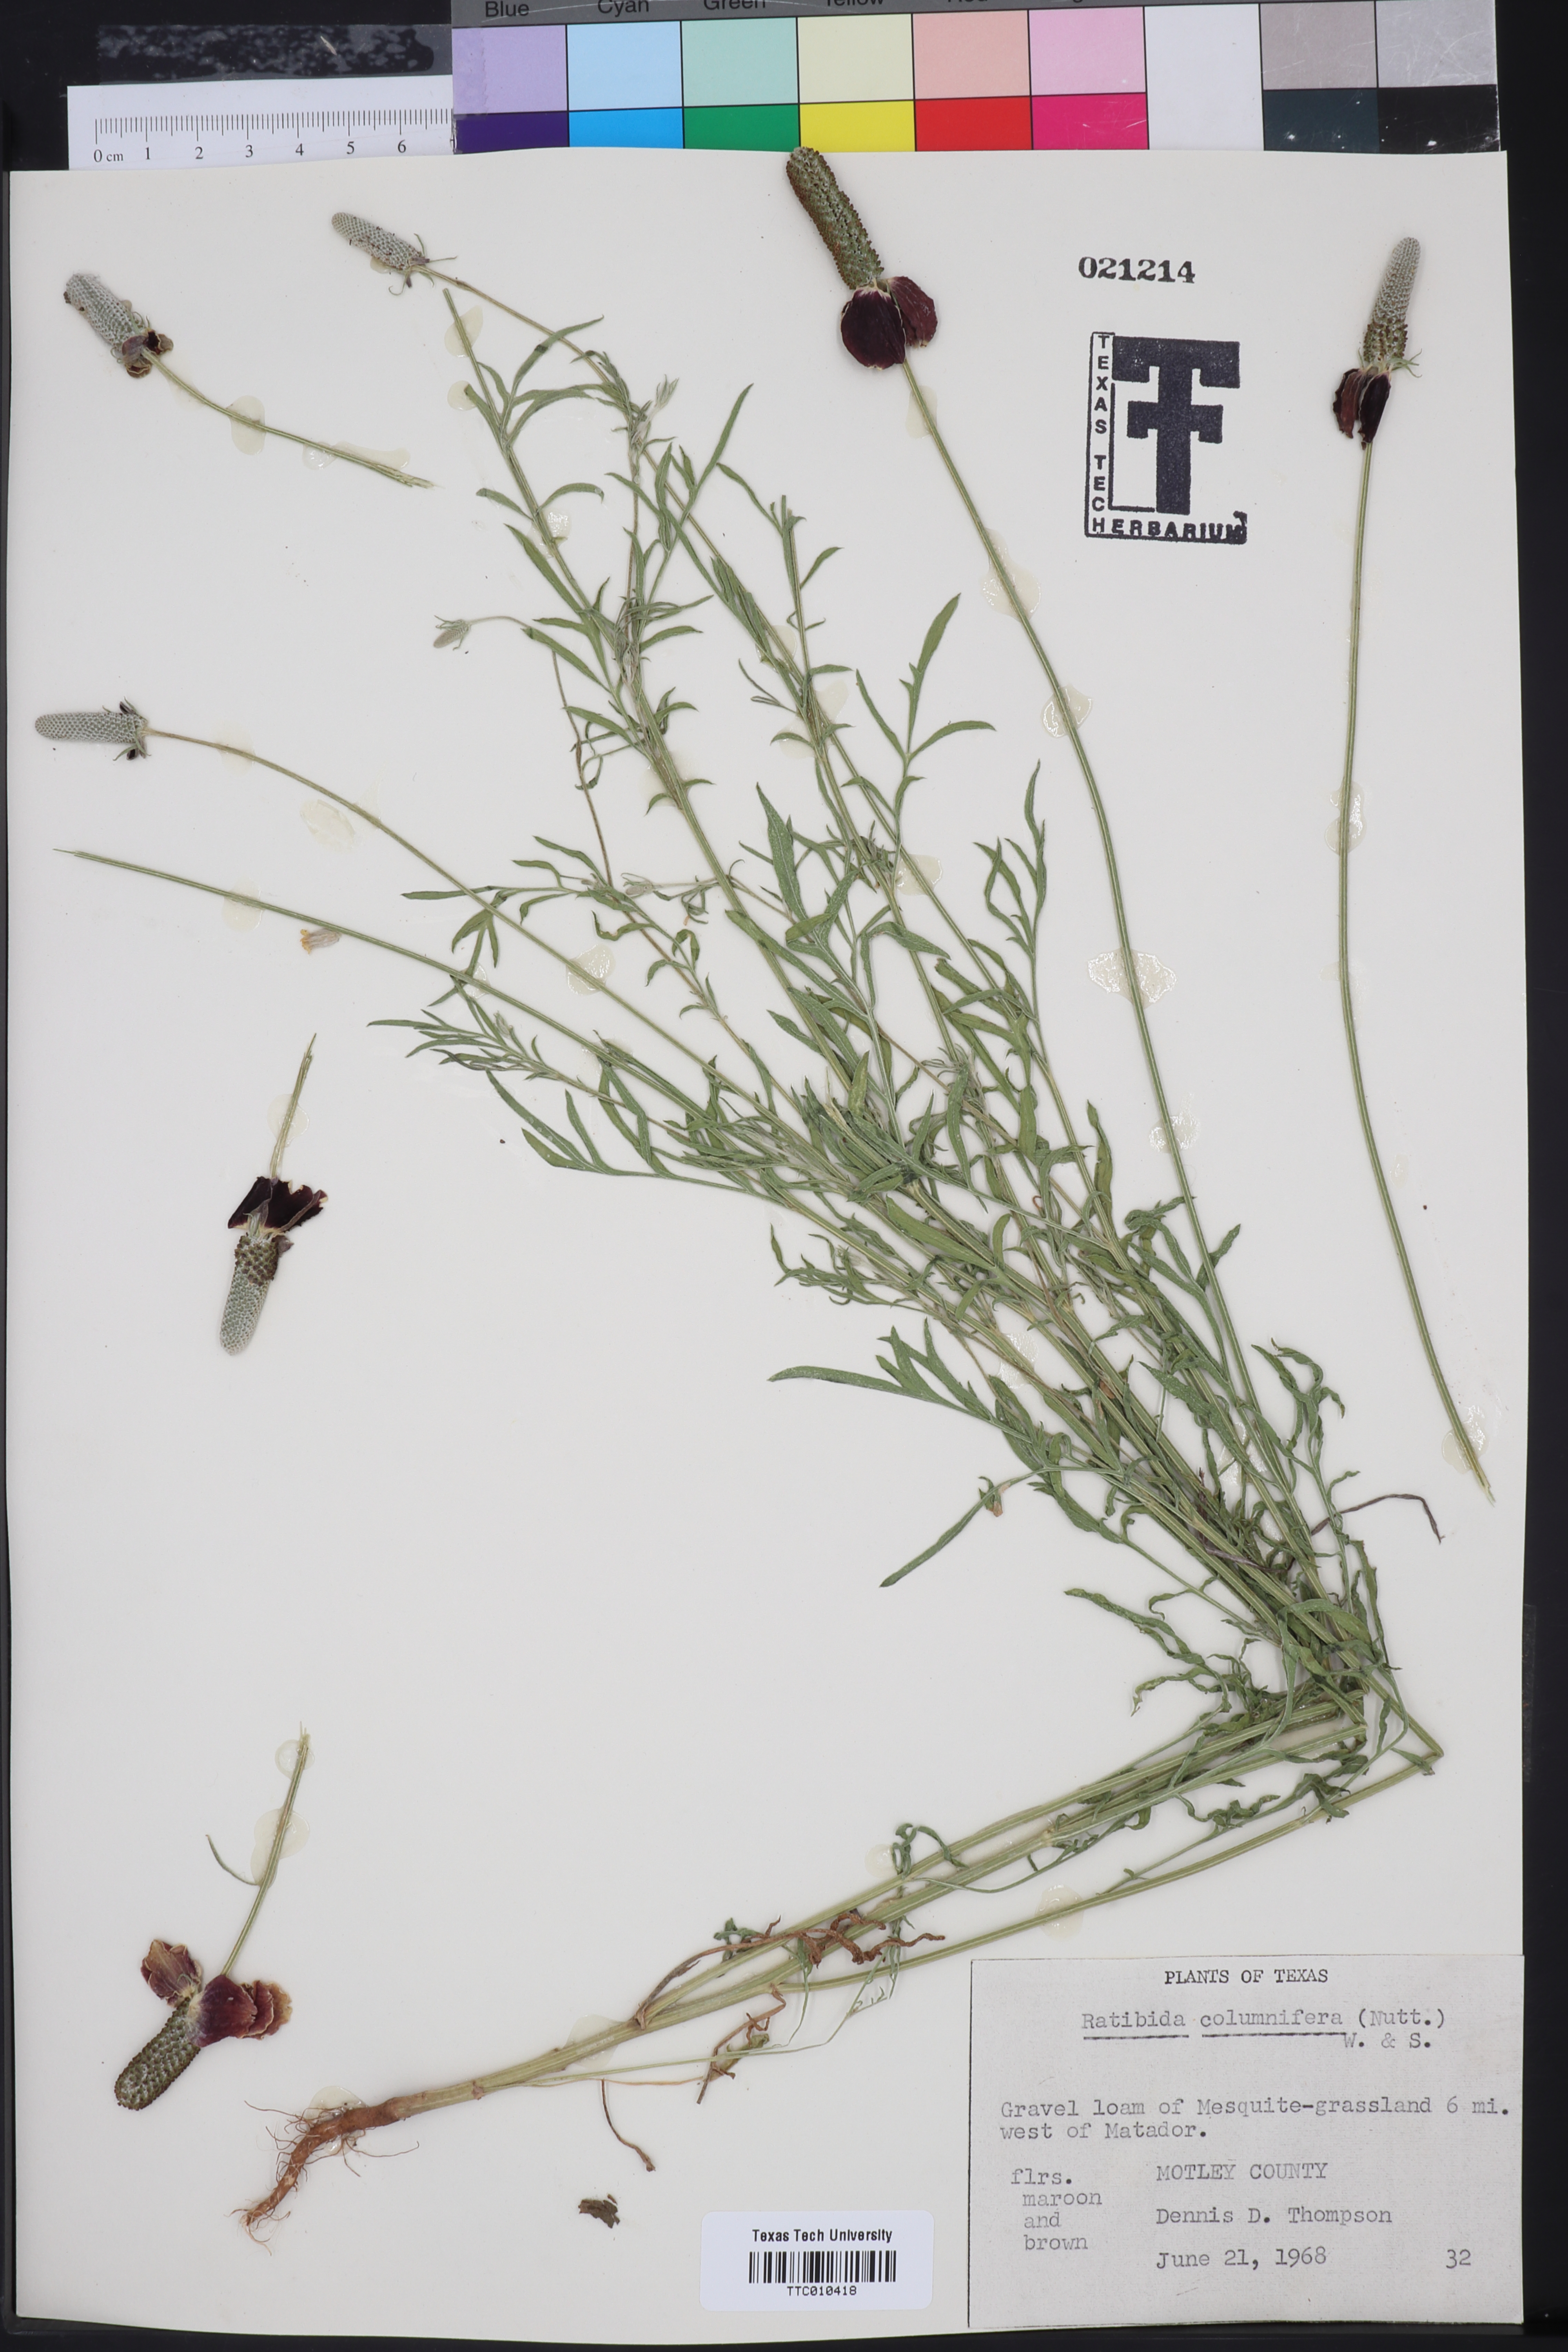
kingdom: Plantae
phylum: Tracheophyta
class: Magnoliopsida
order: Asterales
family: Asteraceae
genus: Ratibida
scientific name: Ratibida columnifera
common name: Prairie coneflower
